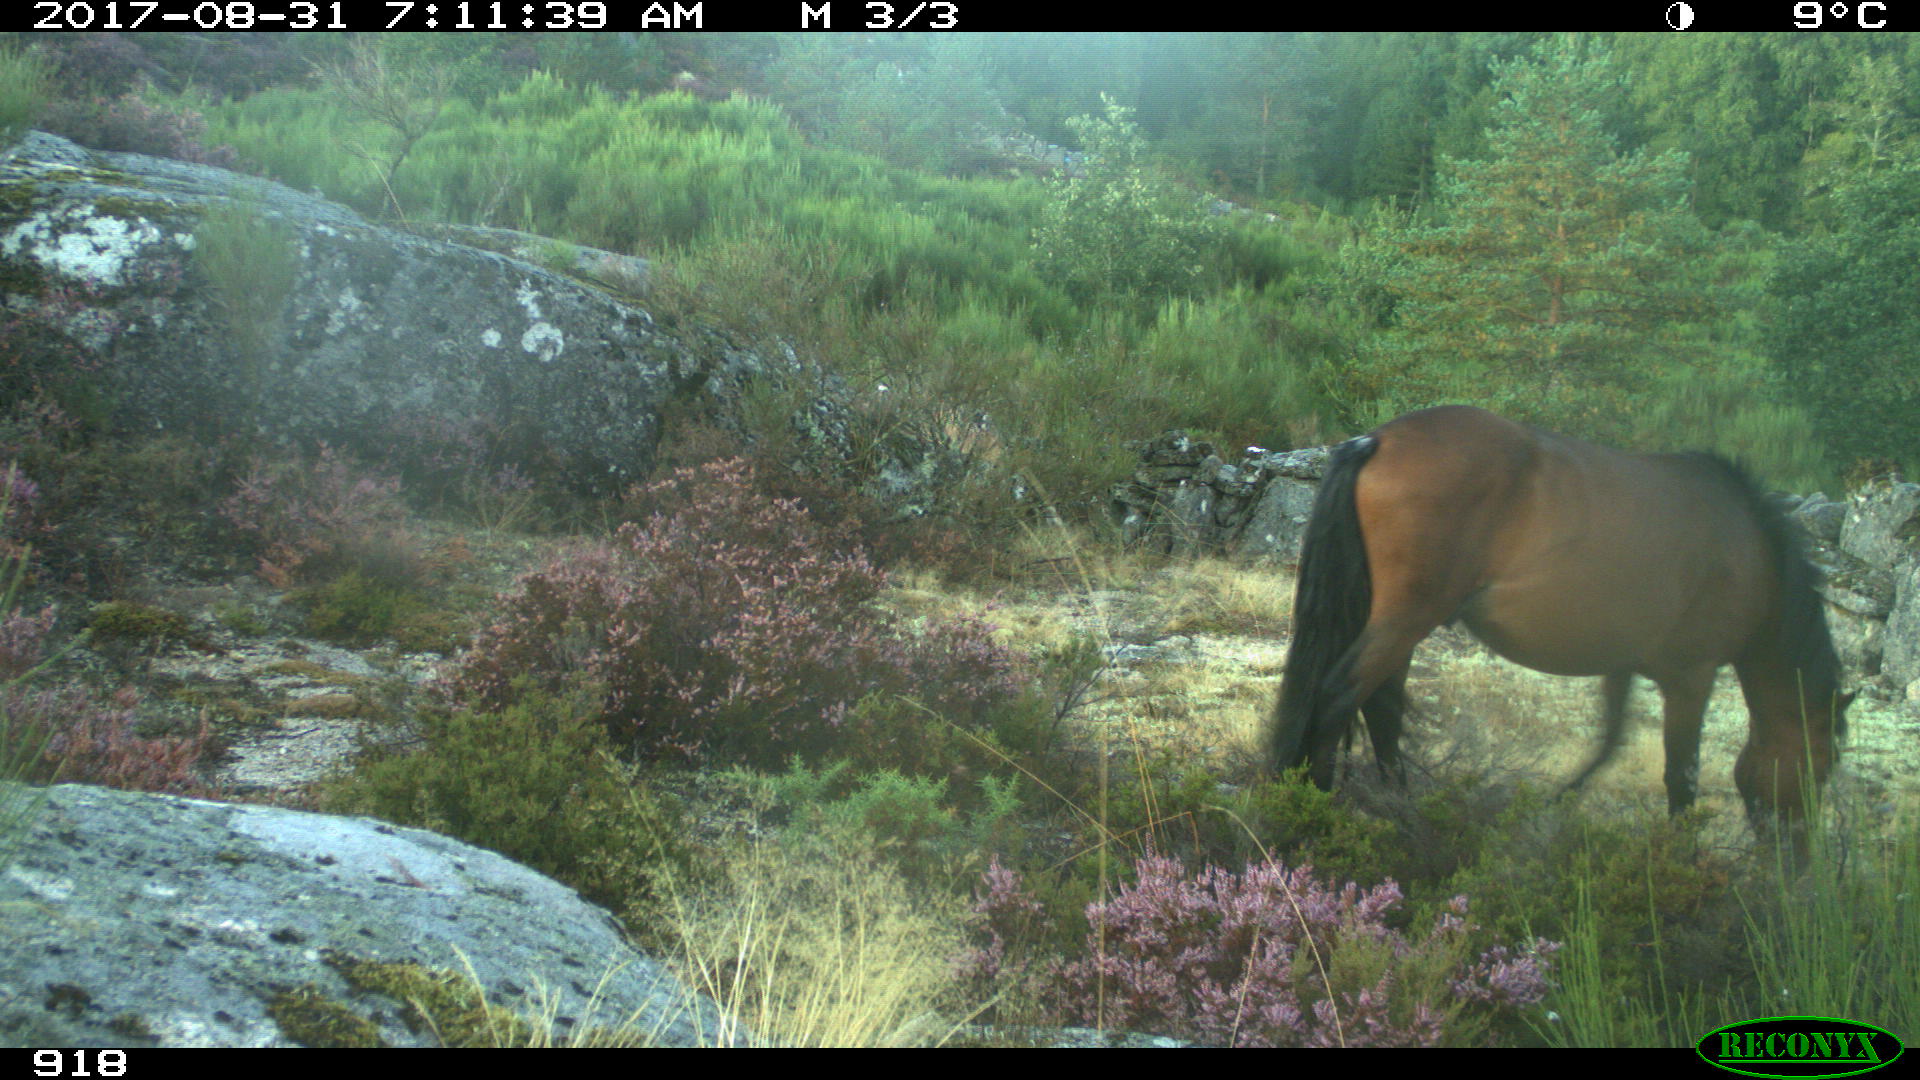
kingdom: Animalia
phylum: Chordata
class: Mammalia
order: Perissodactyla
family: Equidae
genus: Equus
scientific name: Equus caballus
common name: Horse
